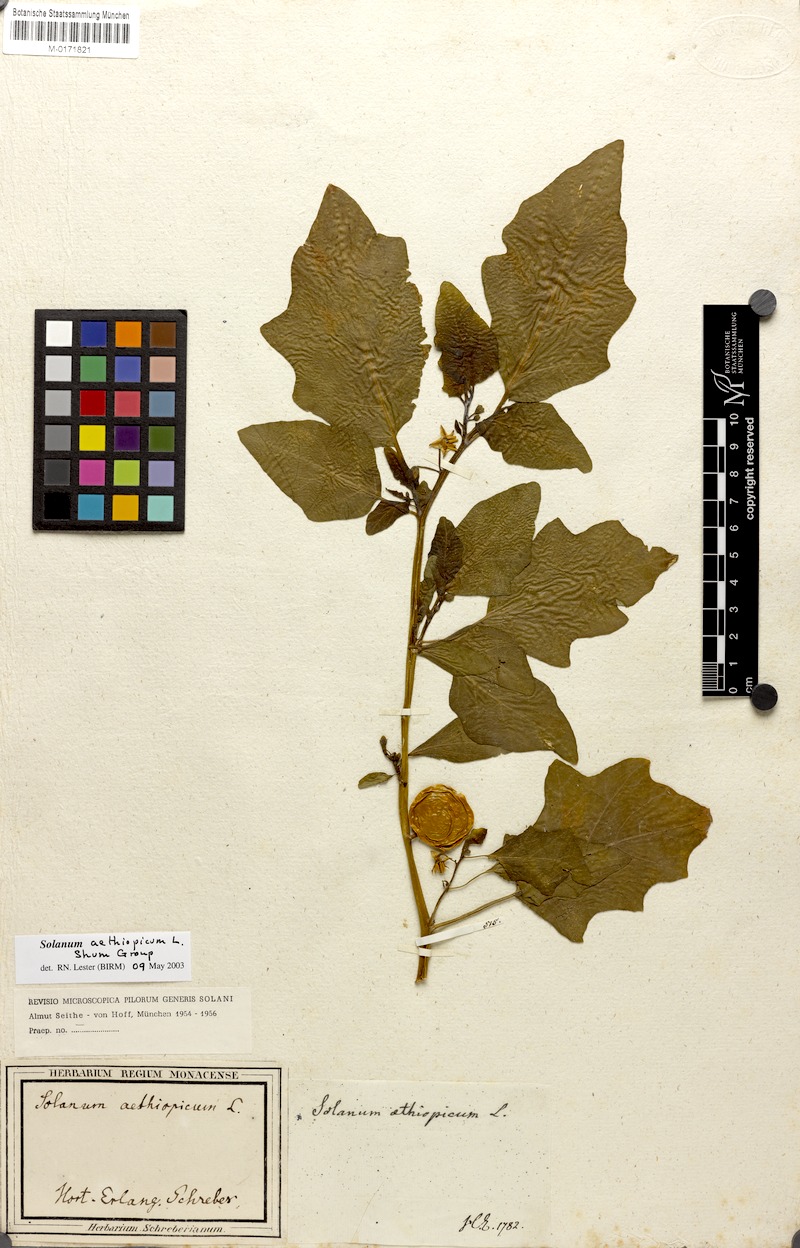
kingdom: Plantae
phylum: Tracheophyta
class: Magnoliopsida
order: Solanales
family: Solanaceae
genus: Solanum
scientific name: Solanum aethiopicum
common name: Gilo
